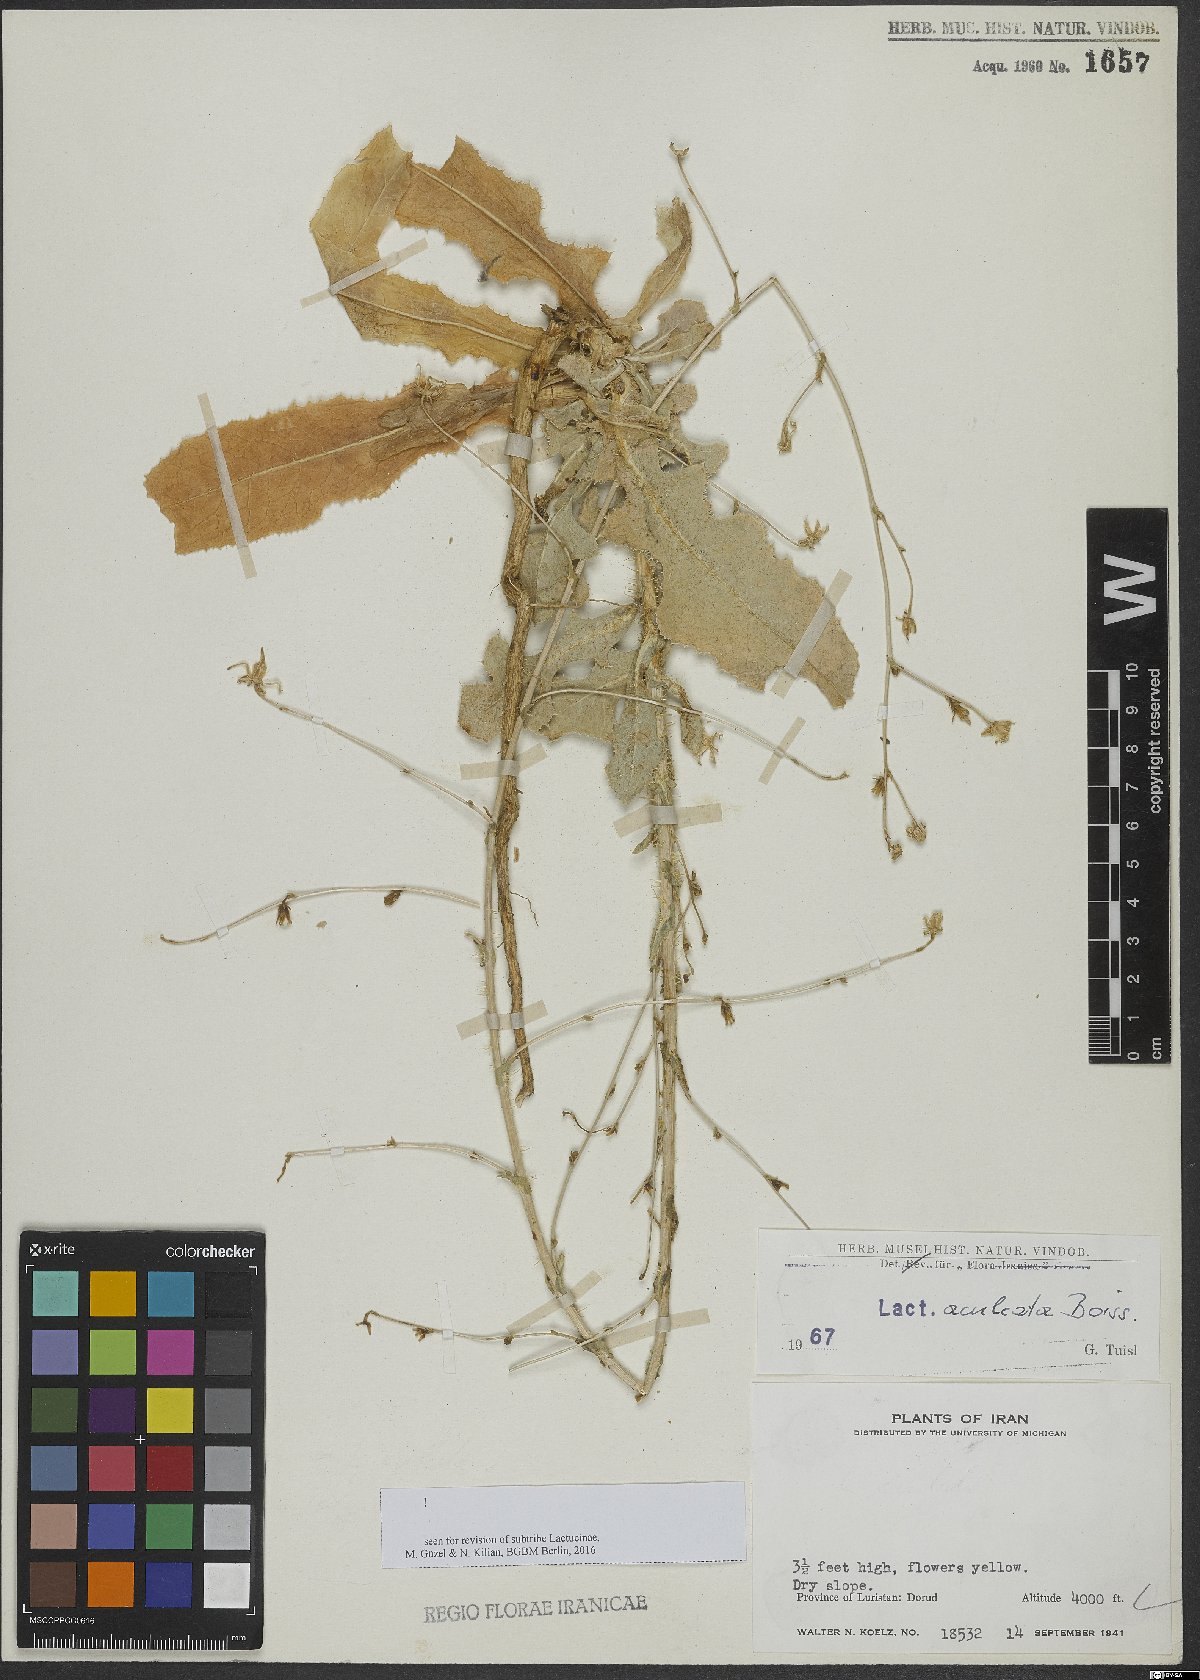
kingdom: Plantae
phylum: Tracheophyta
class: Magnoliopsida
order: Asterales
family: Asteraceae
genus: Lactuca
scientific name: Lactuca aculeata
